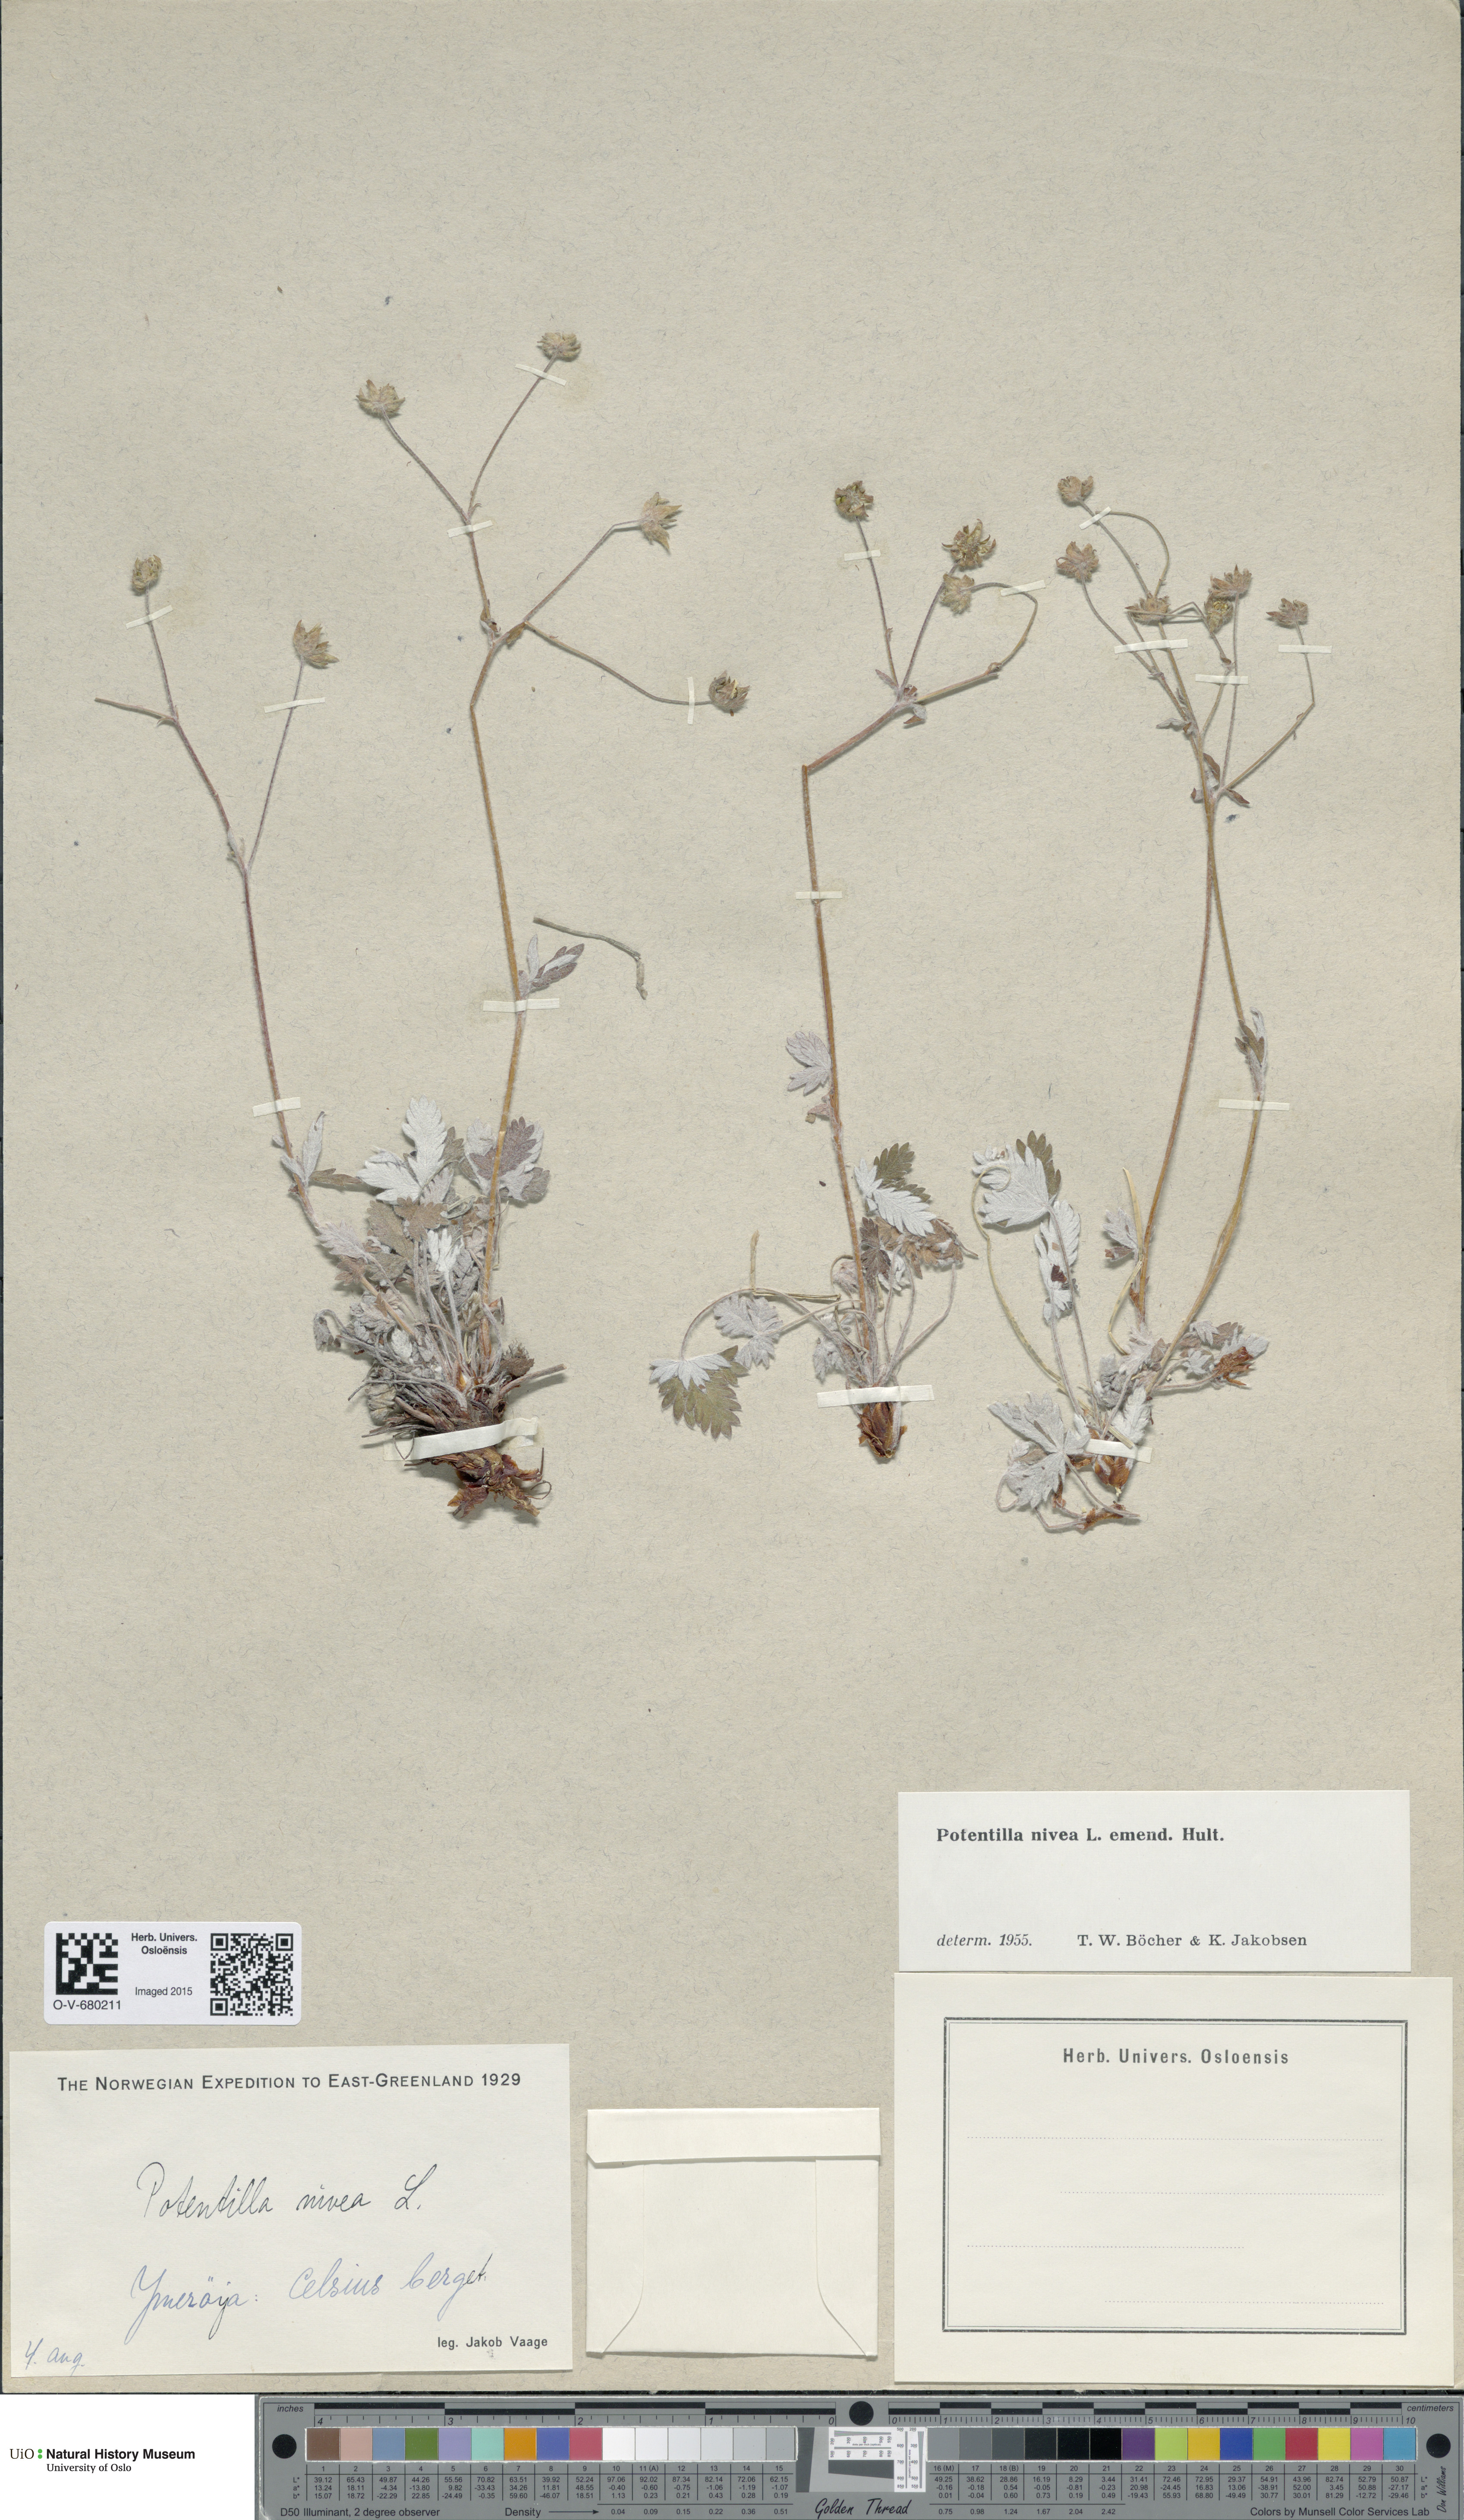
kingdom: Plantae
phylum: Tracheophyta
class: Magnoliopsida
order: Rosales
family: Rosaceae
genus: Potentilla
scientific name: Potentilla nivea
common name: Snow cinquefoil
